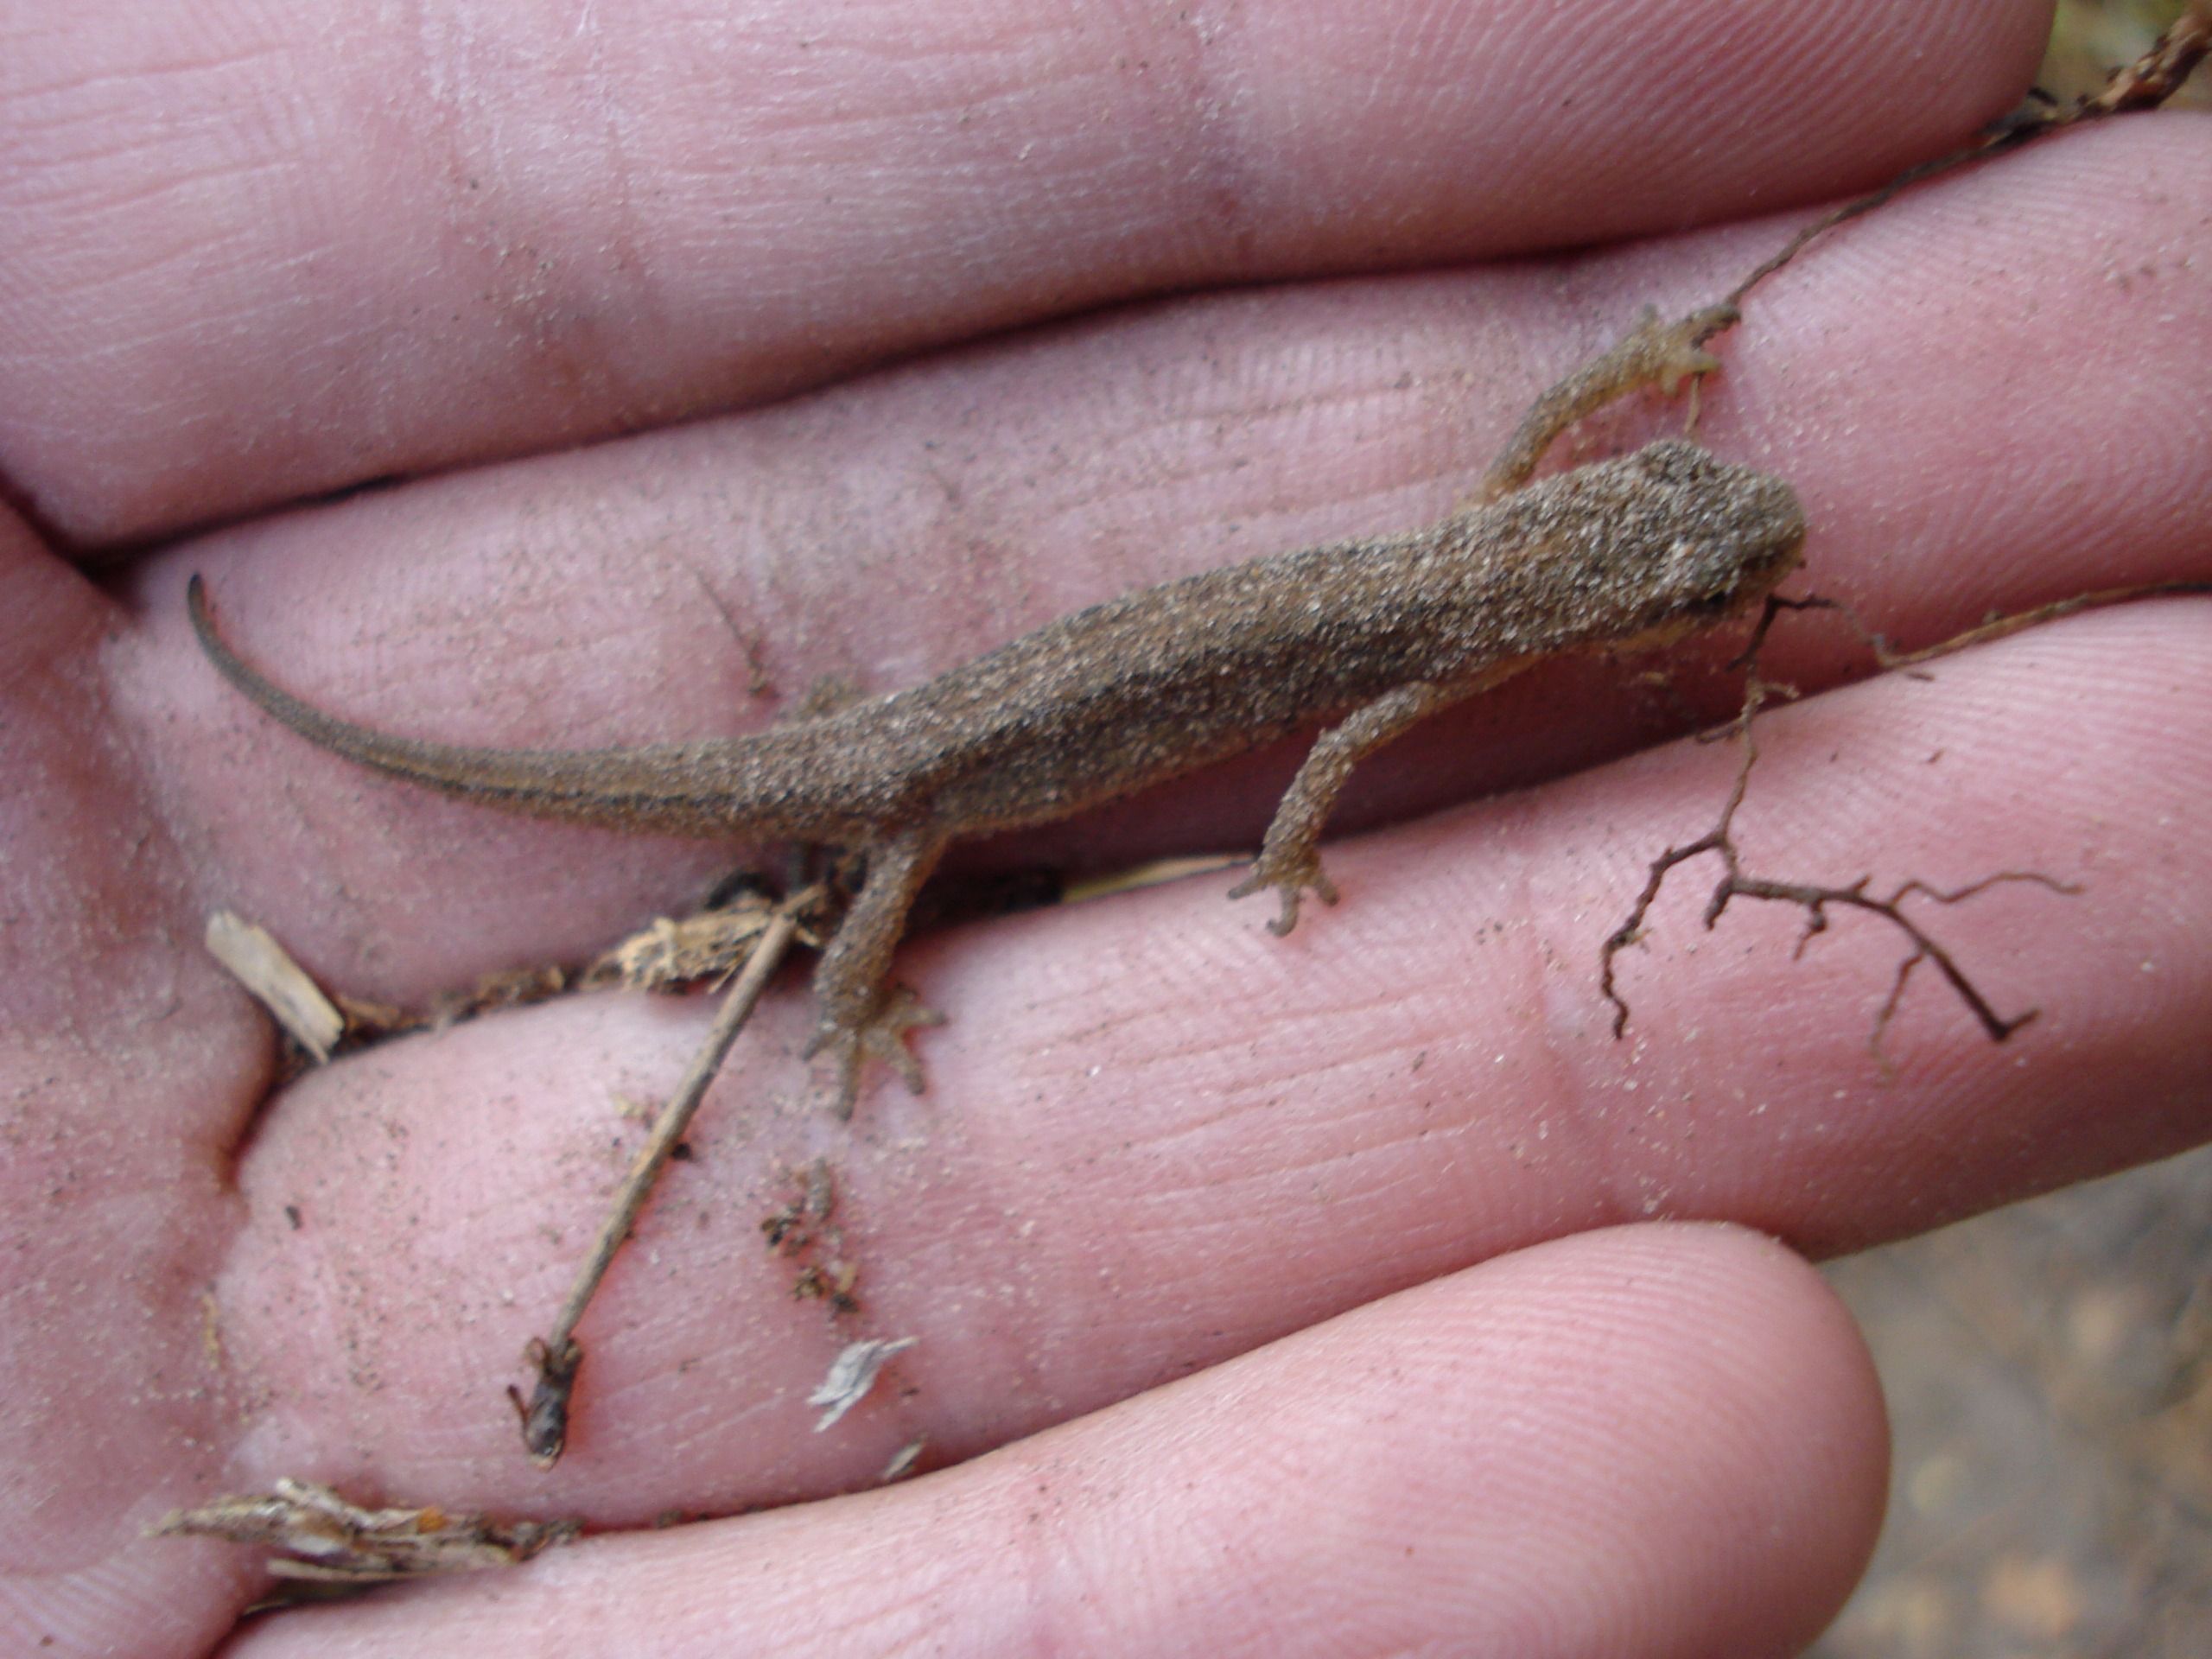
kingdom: Animalia
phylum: Chordata
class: Amphibia
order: Caudata
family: Salamandridae
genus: Lissotriton
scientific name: Lissotriton vulgaris
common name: Lille vandsalamander
